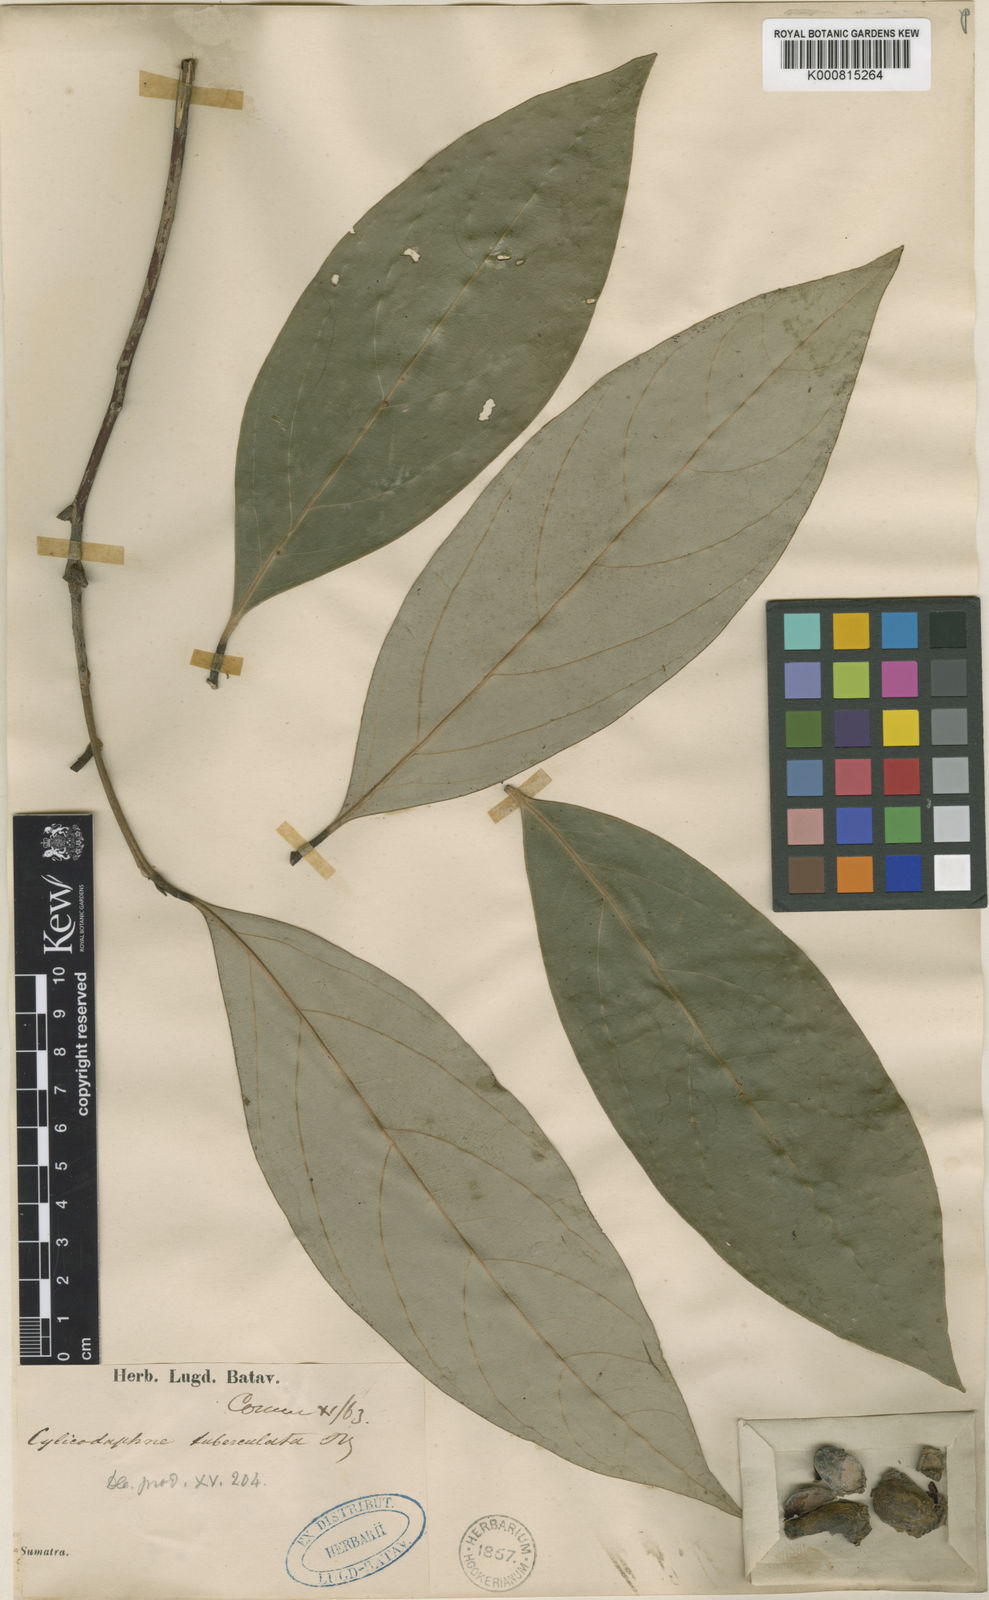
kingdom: Plantae
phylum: Tracheophyta
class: Magnoliopsida
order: Laurales
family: Lauraceae
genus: Litsea
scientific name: Litsea tuberculata
